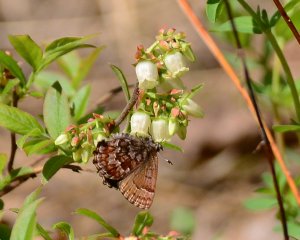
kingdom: Animalia
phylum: Arthropoda
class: Insecta
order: Lepidoptera
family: Lycaenidae
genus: Incisalia
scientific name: Incisalia niphon
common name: Eastern Pine Elfin
